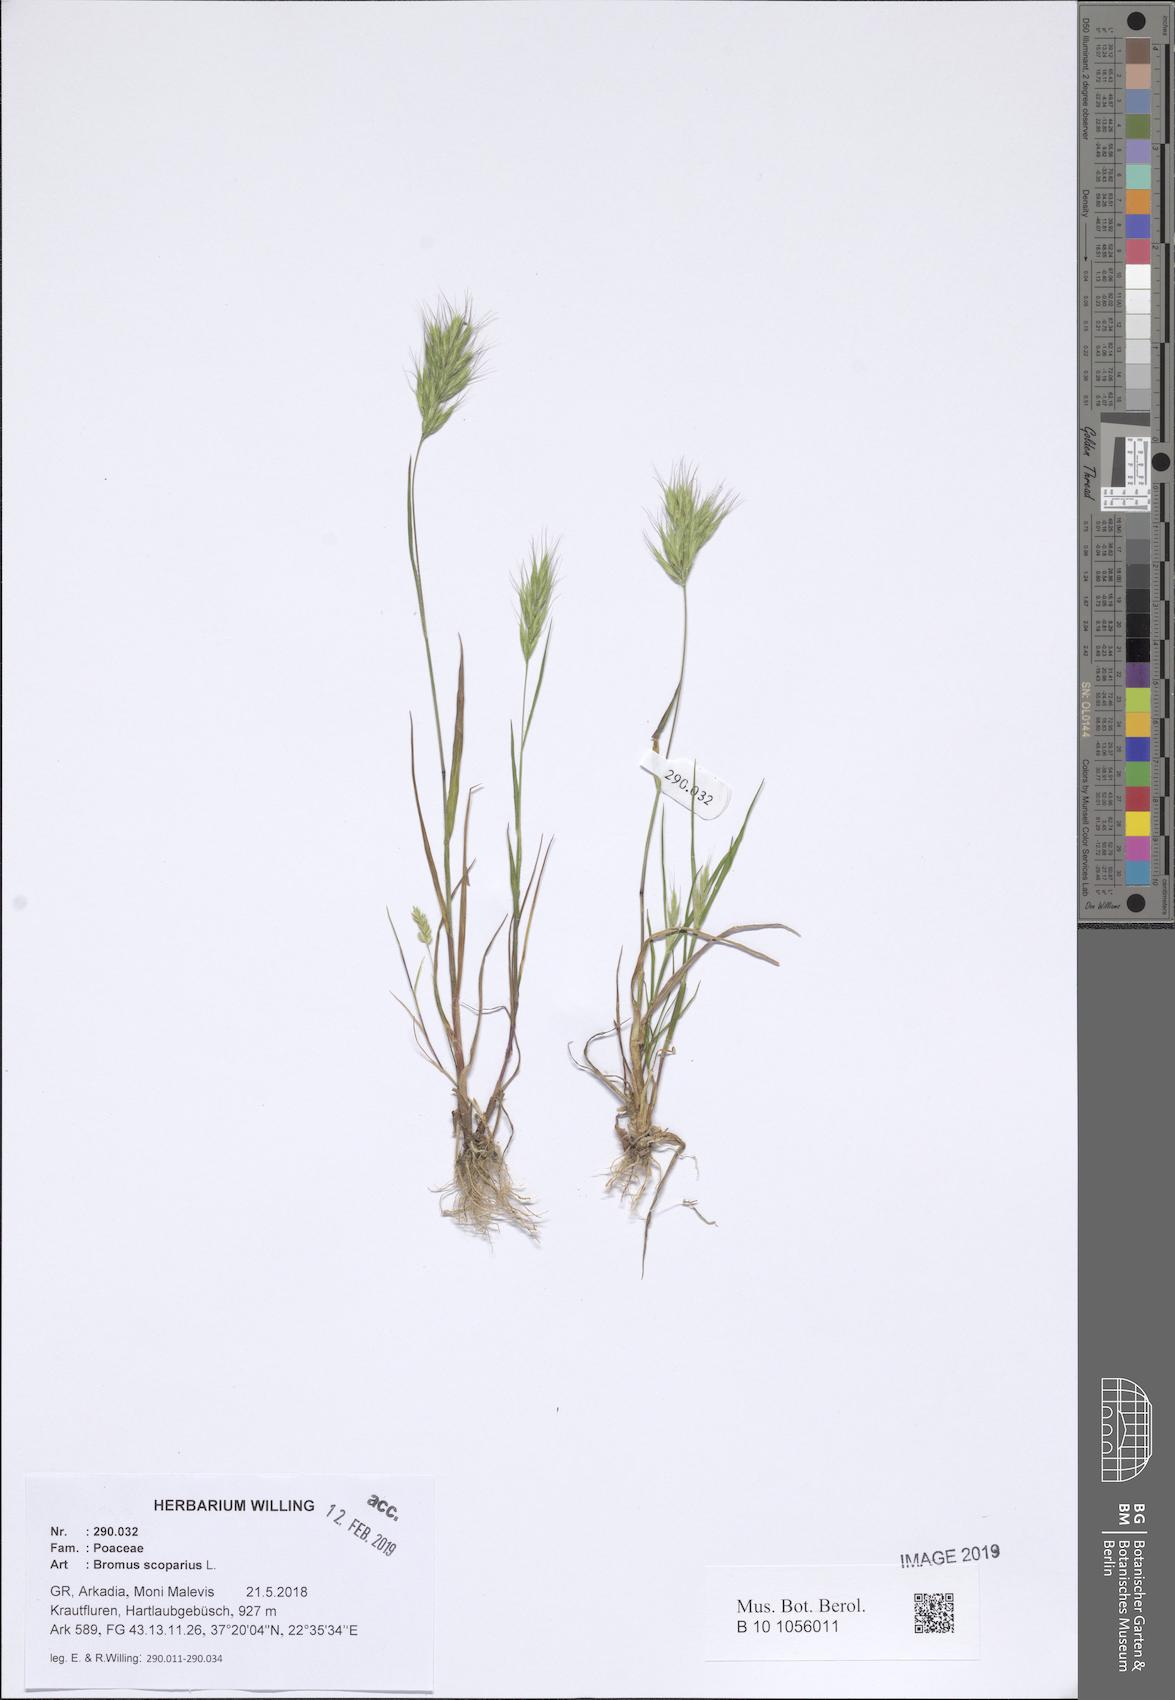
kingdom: Plantae
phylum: Tracheophyta
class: Liliopsida
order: Poales
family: Poaceae
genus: Bromus
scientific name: Bromus scoparius
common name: Broom brome
